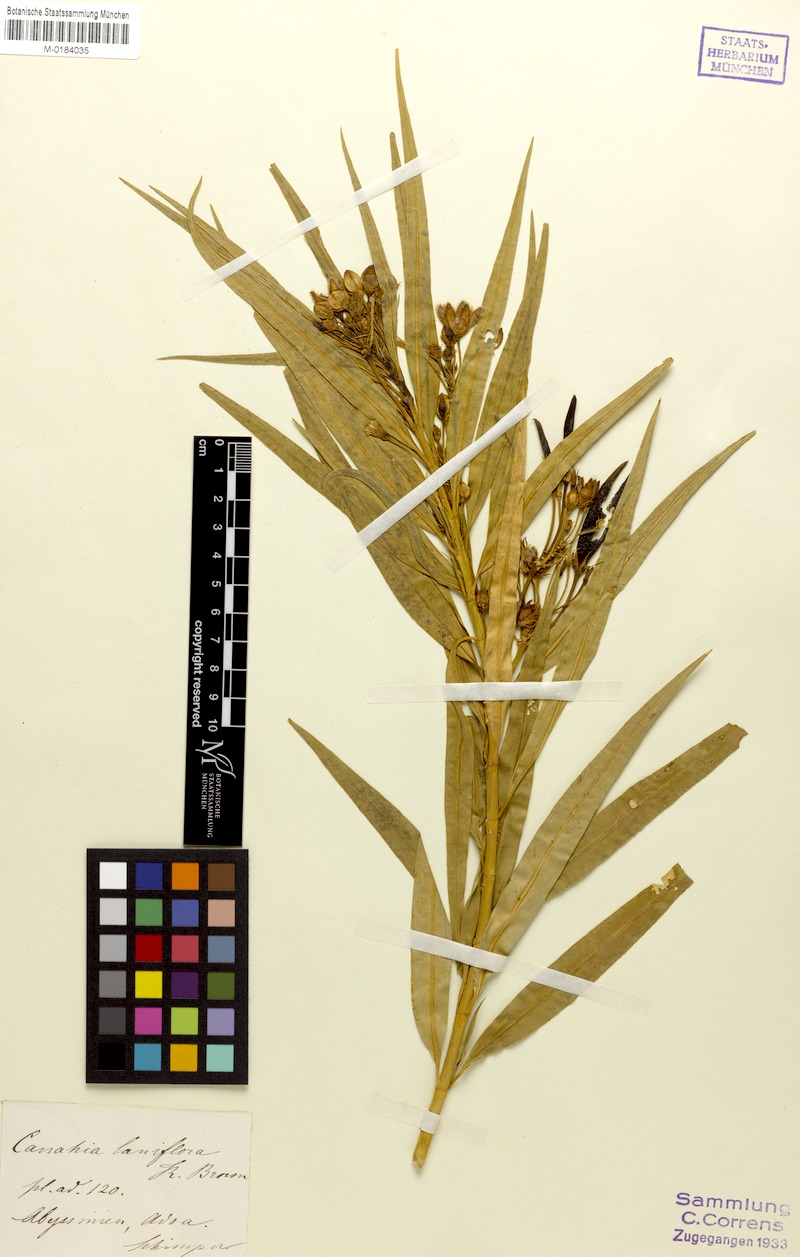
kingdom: Plantae
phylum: Tracheophyta
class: Magnoliopsida
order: Gentianales
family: Apocynaceae
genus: Kanahia
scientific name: Kanahia laniflora
